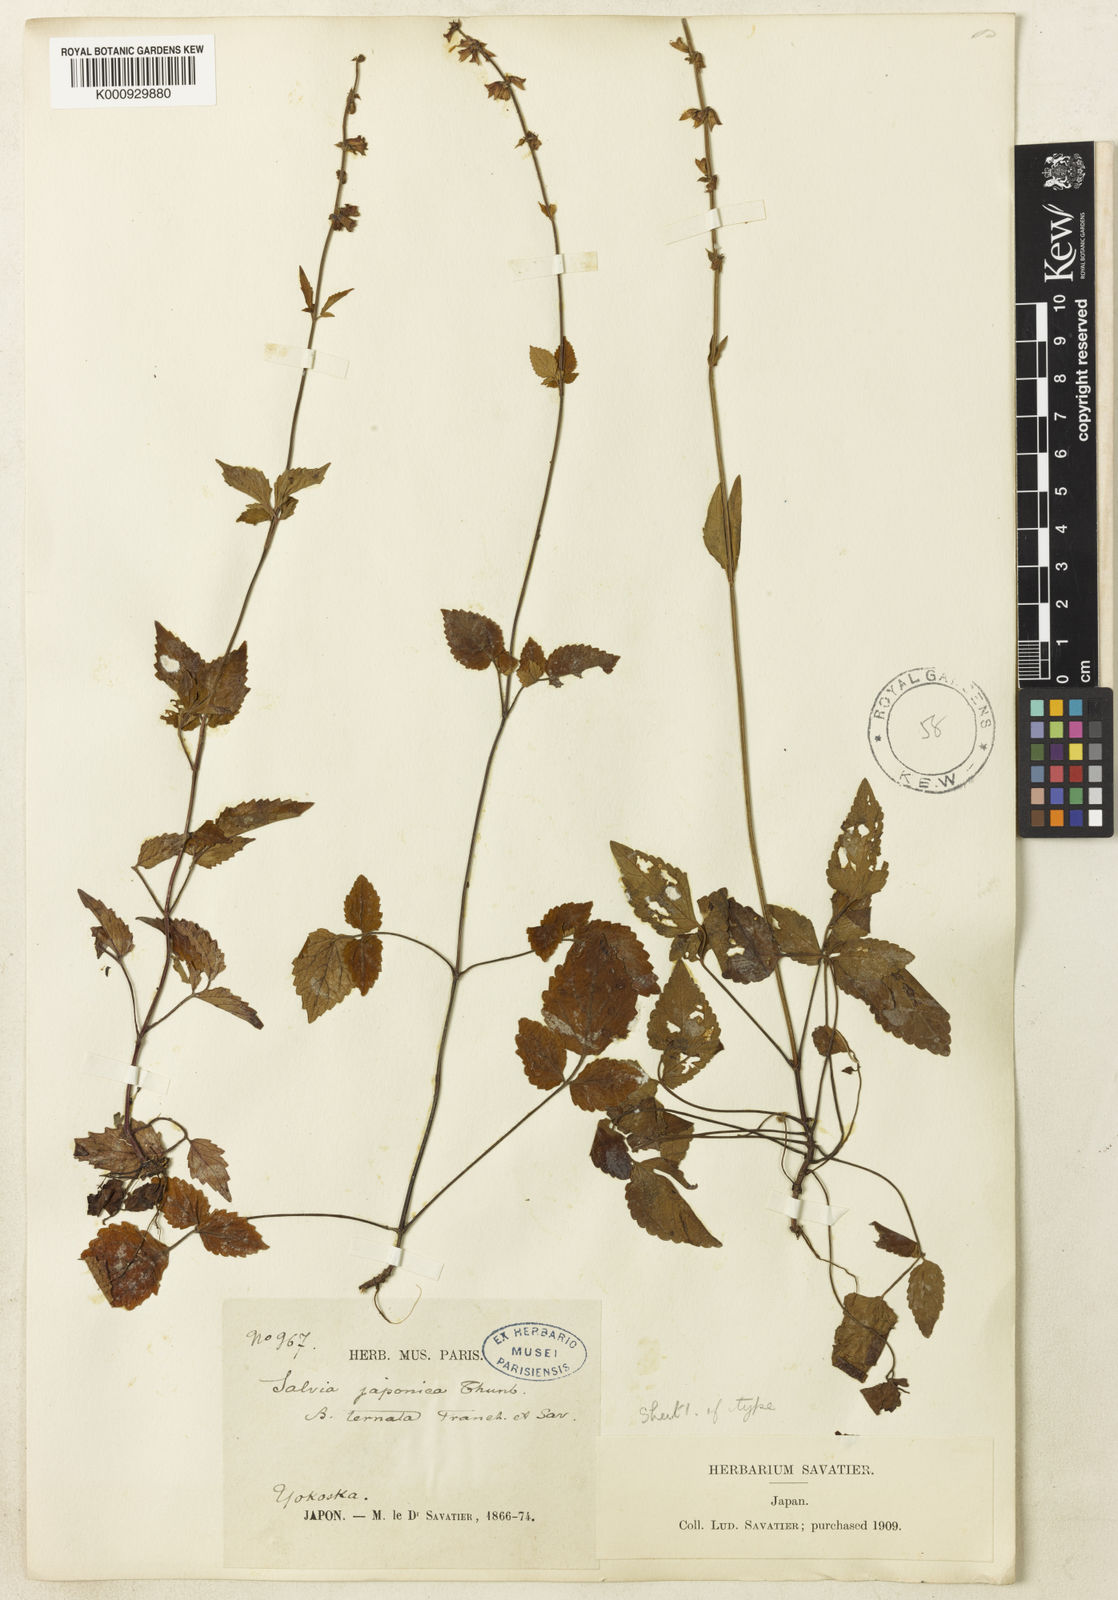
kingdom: Plantae
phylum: Tracheophyta
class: Magnoliopsida
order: Lamiales
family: Lamiaceae
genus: Salvia
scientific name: Salvia japonica
